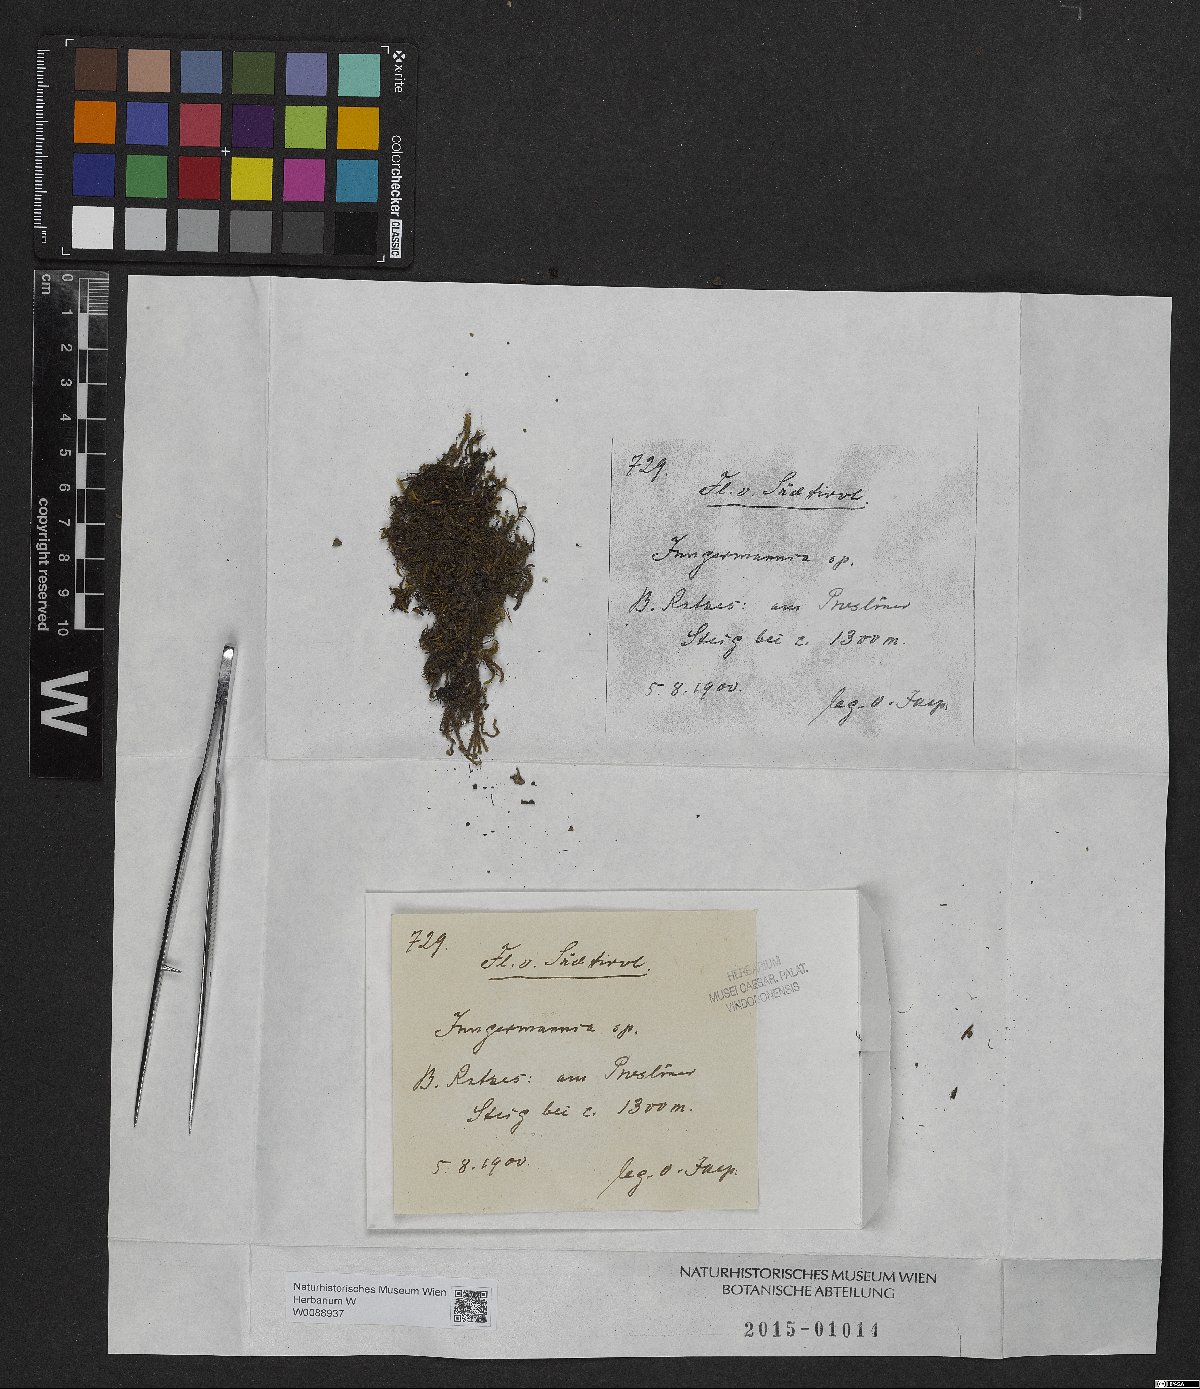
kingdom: Plantae
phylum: Marchantiophyta
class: Jungermanniopsida
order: Jungermanniales
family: Jungermanniaceae
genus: Jungermannia
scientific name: Jungermannia
